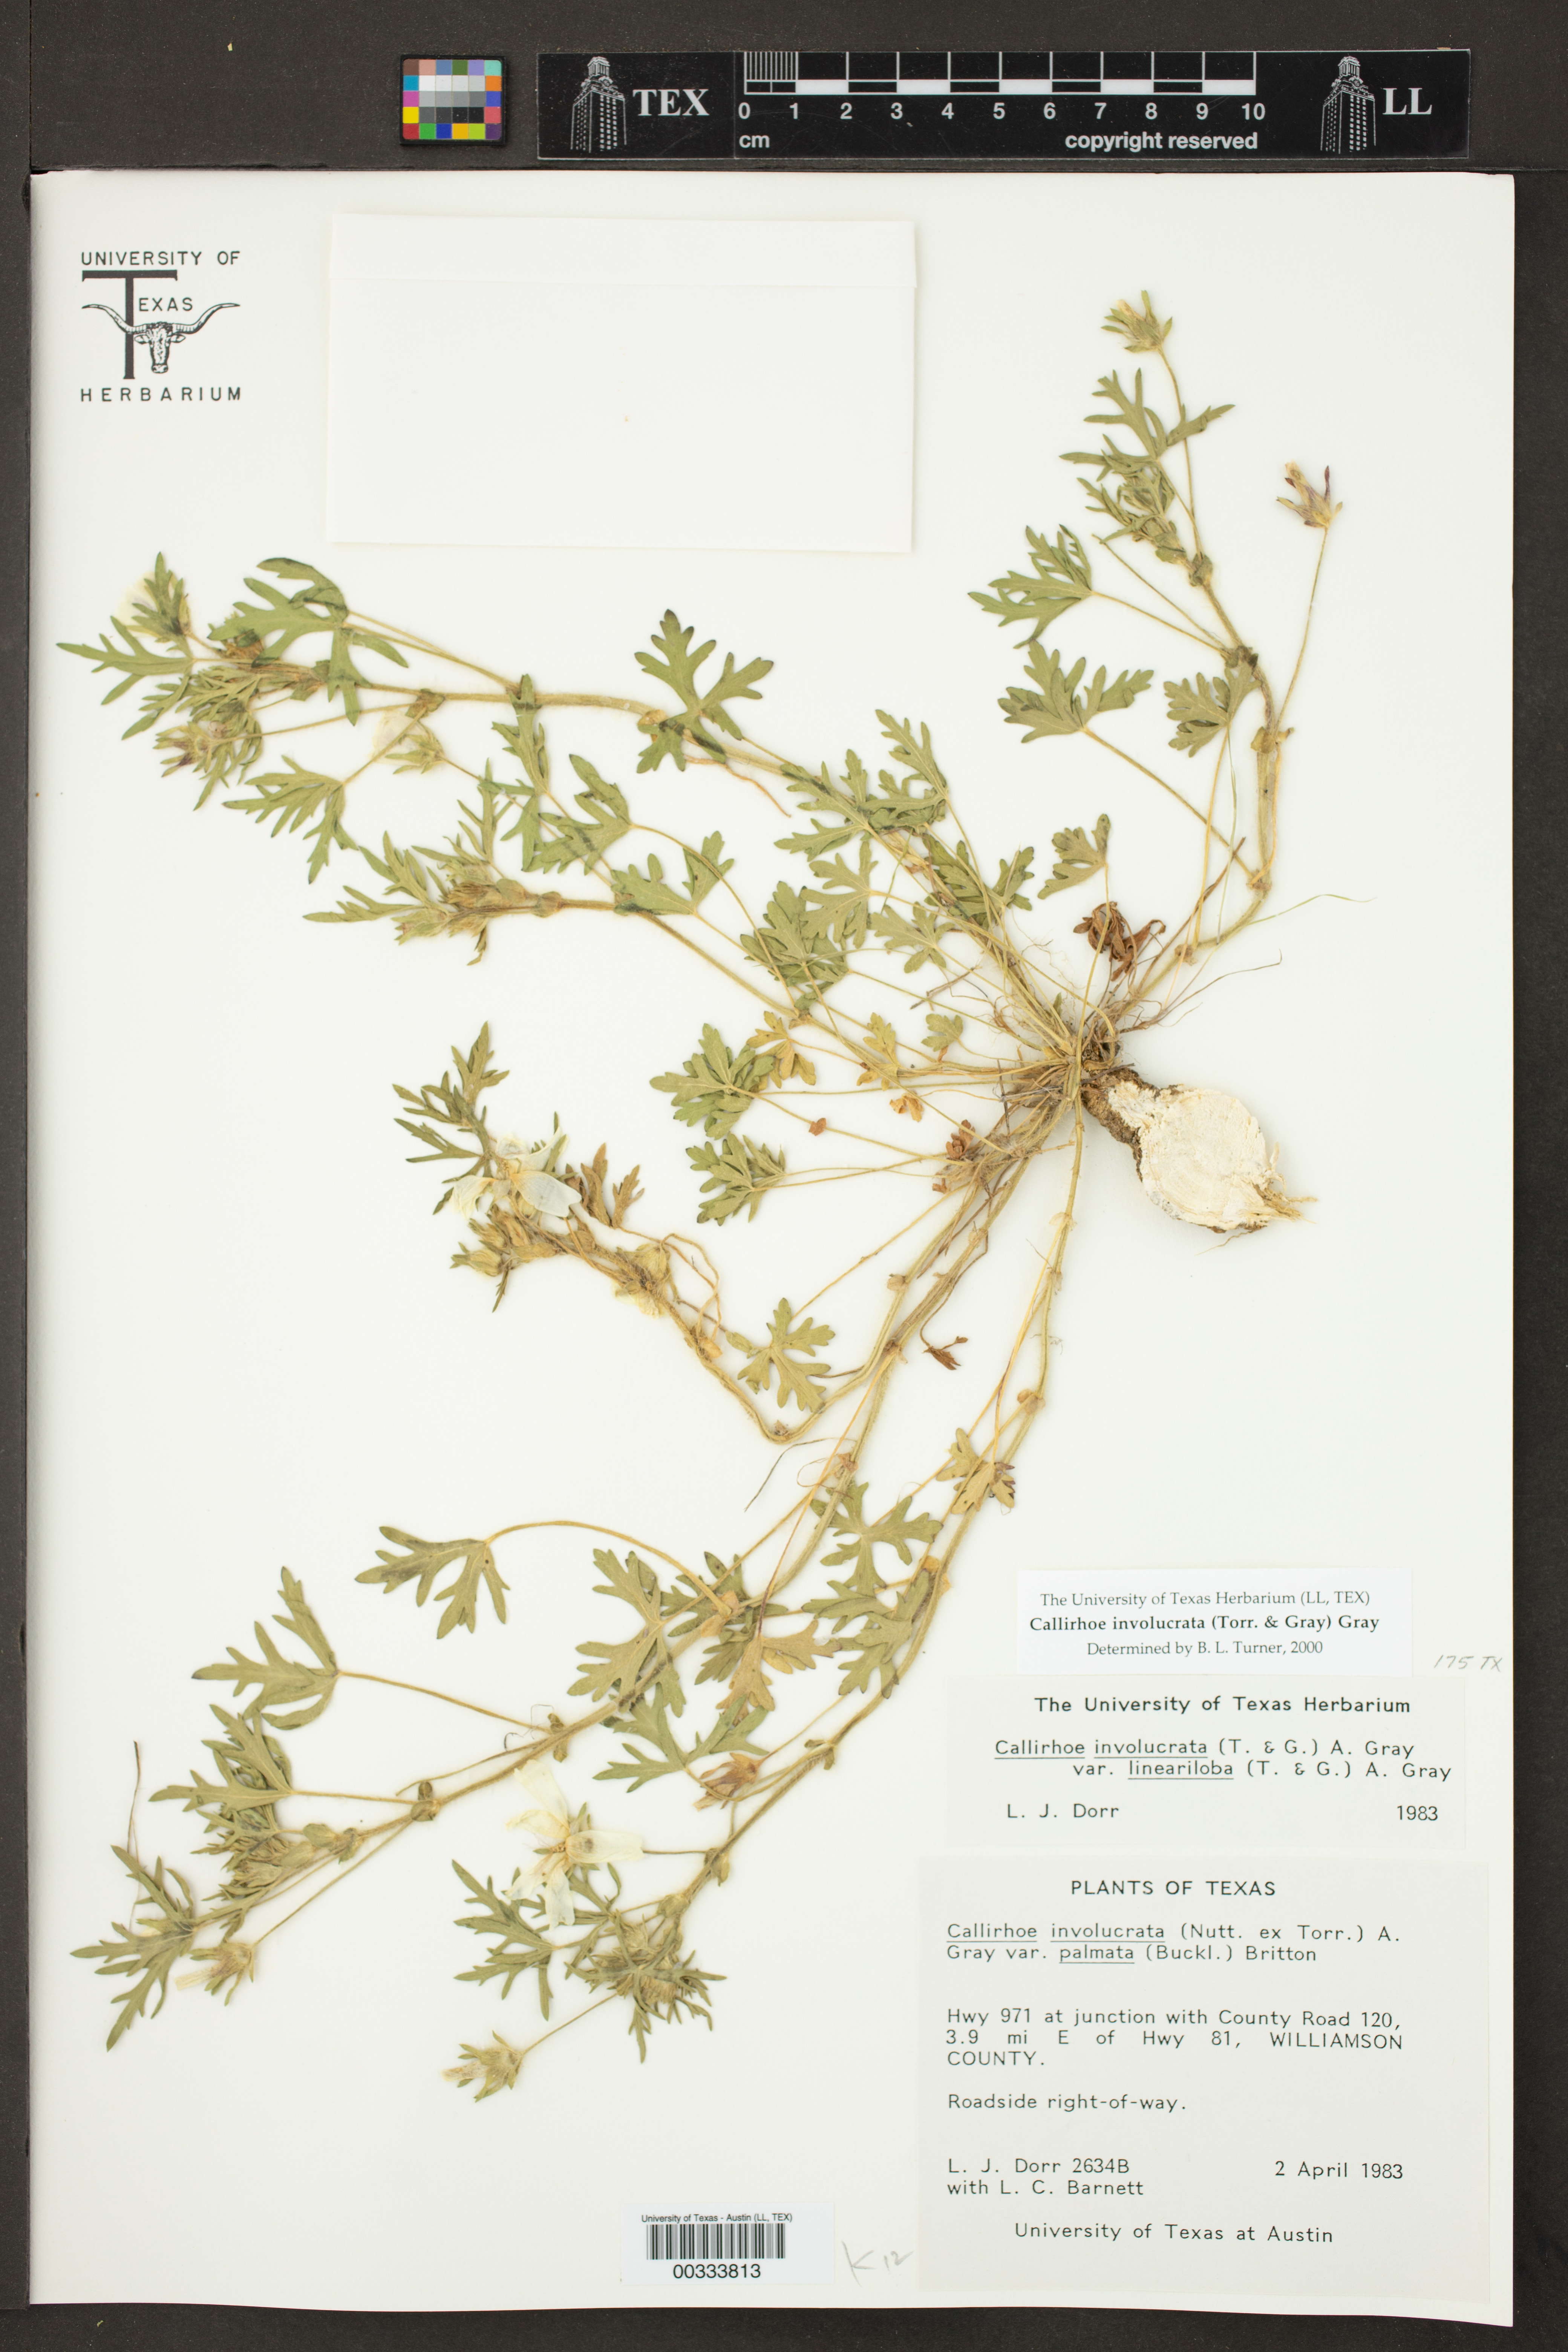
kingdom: Plantae
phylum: Tracheophyta
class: Magnoliopsida
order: Malvales
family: Malvaceae
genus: Callirhoe
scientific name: Callirhoe involucrata
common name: Purple poppy-mallow
